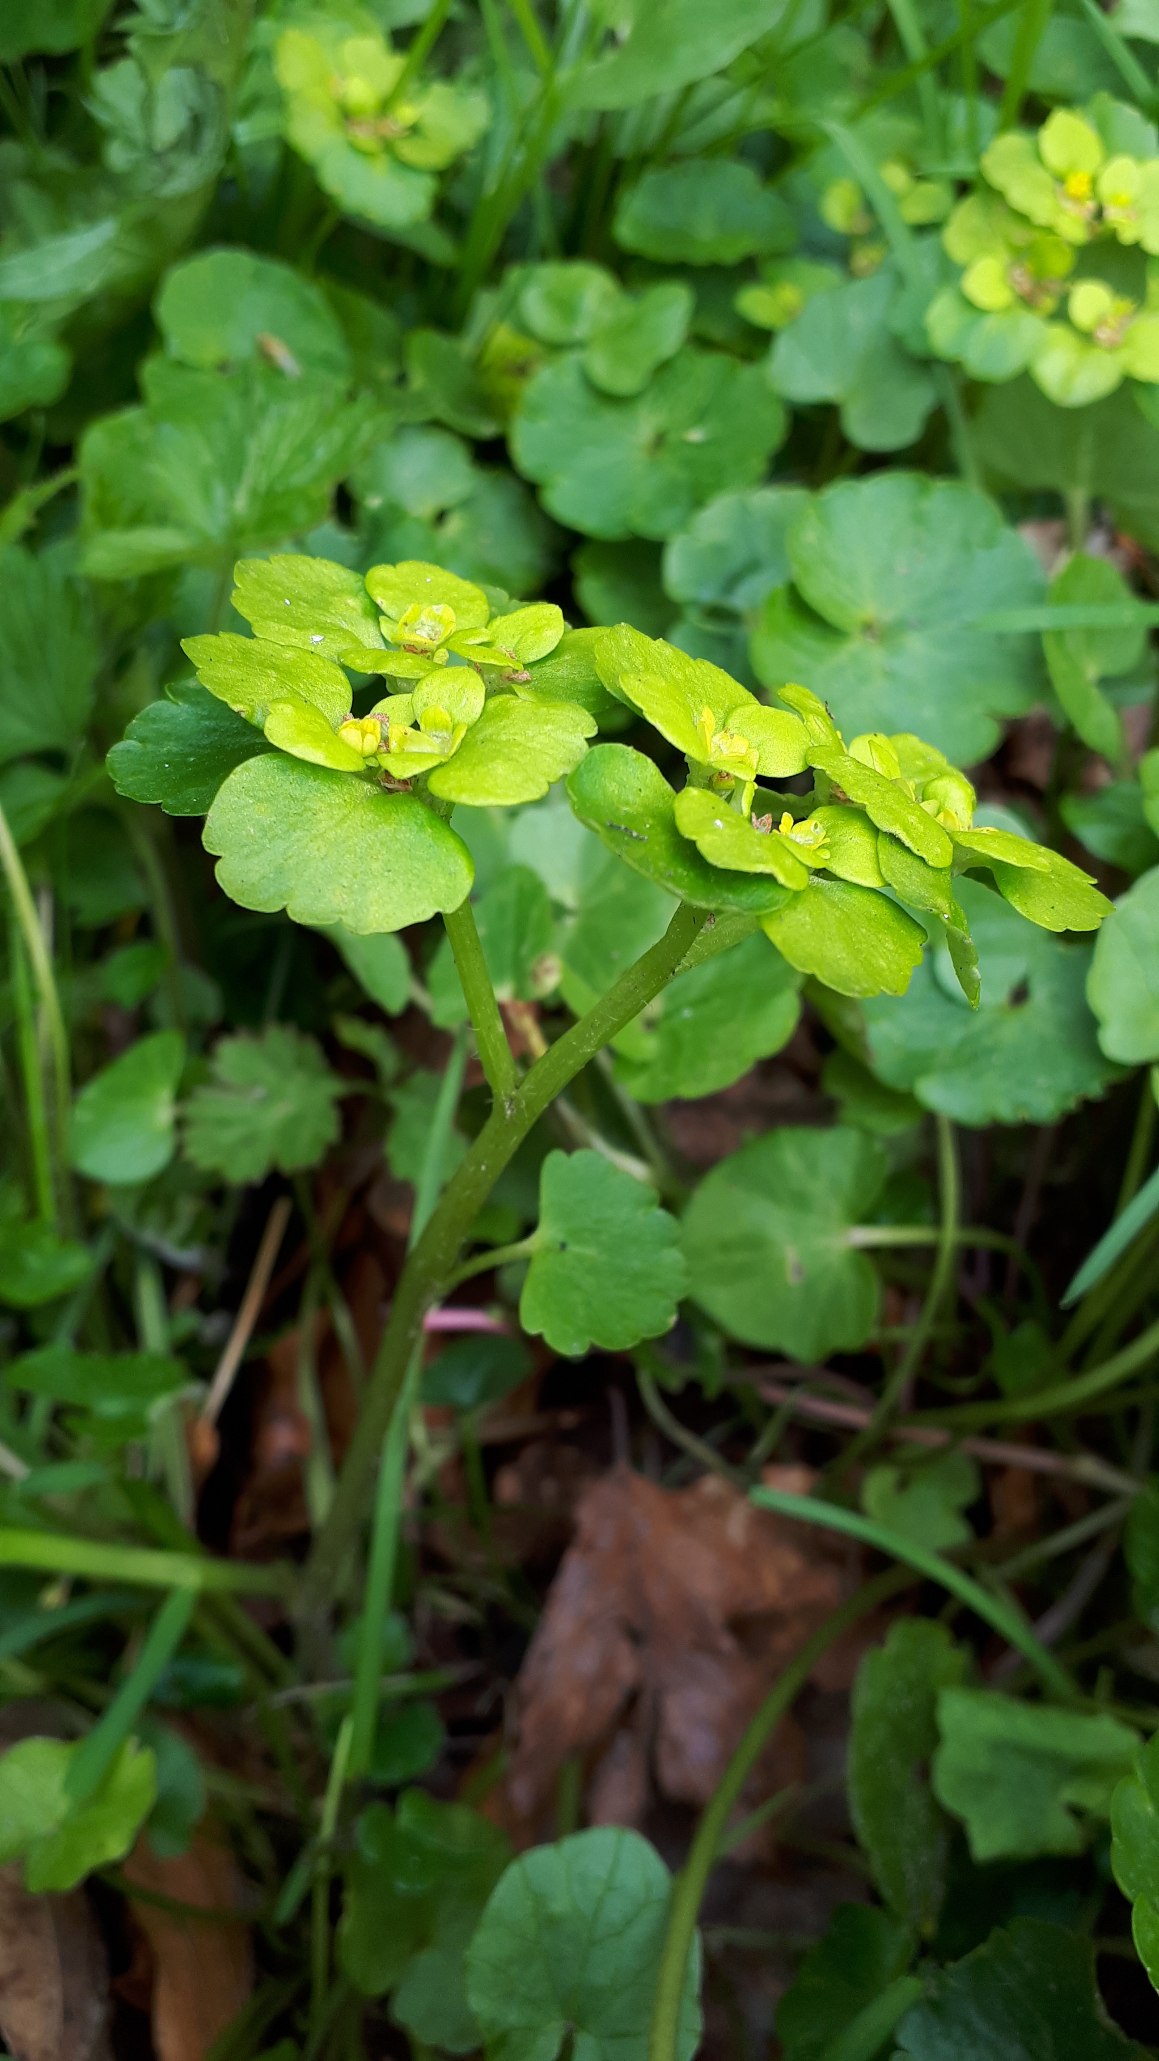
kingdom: Plantae
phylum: Tracheophyta
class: Magnoliopsida
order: Saxifragales
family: Saxifragaceae
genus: Chrysosplenium
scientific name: Chrysosplenium alternifolium
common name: Almindelig milturt
